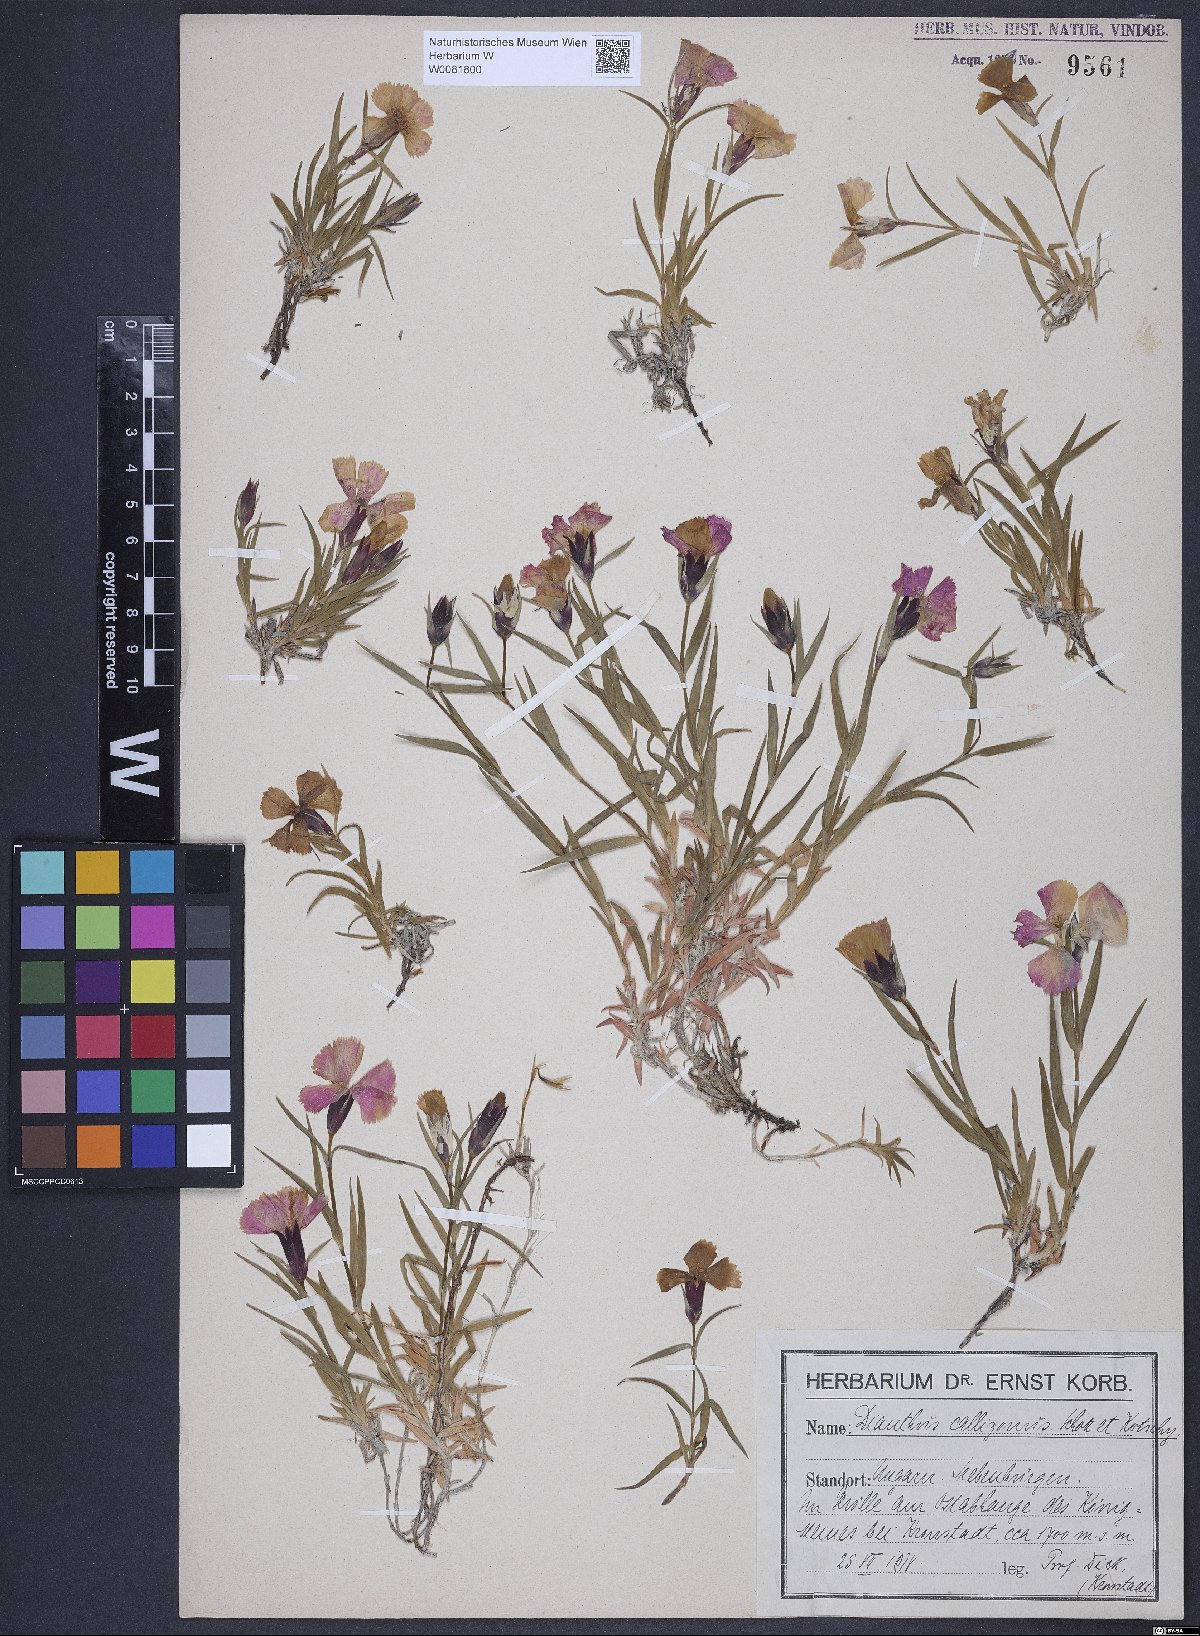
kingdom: Plantae
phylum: Tracheophyta
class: Magnoliopsida
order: Caryophyllales
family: Caryophyllaceae
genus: Dianthus
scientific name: Dianthus callizonus
